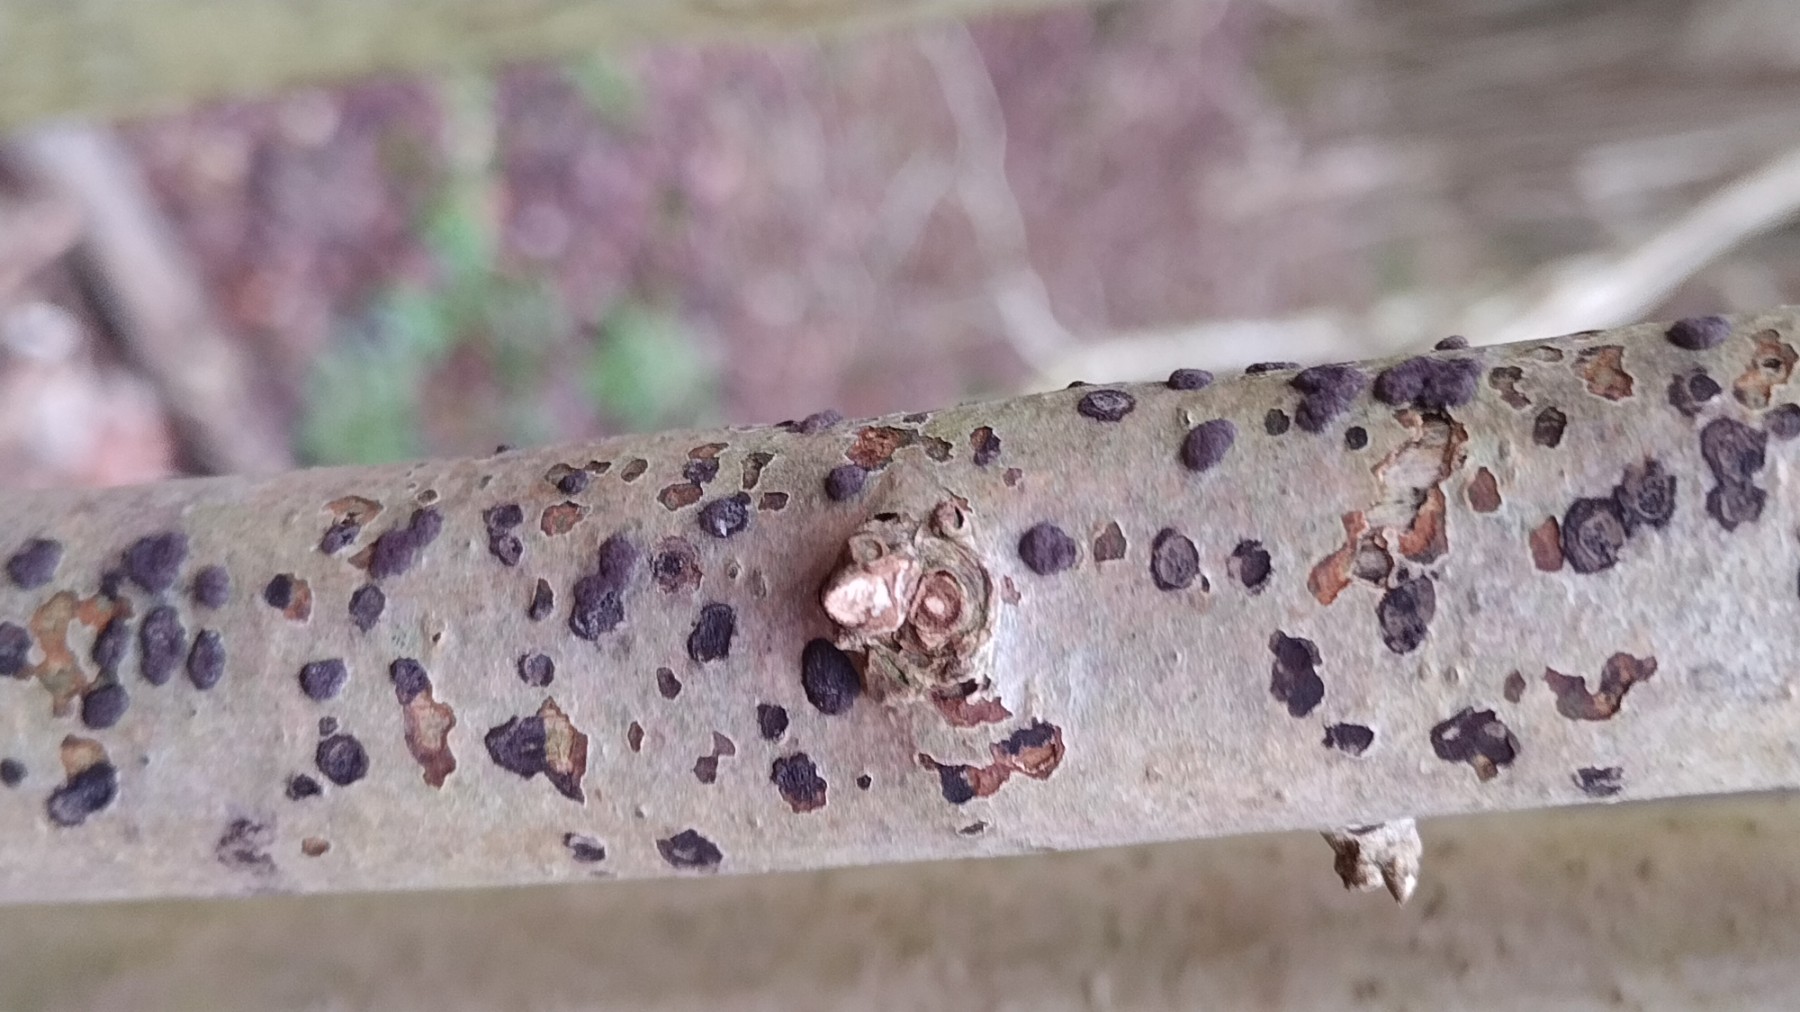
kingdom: Fungi
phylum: Ascomycota
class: Sordariomycetes
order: Xylariales
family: Hypoxylaceae
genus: Hypoxylon
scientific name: Hypoxylon fuscum
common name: kegleformet kulbær
